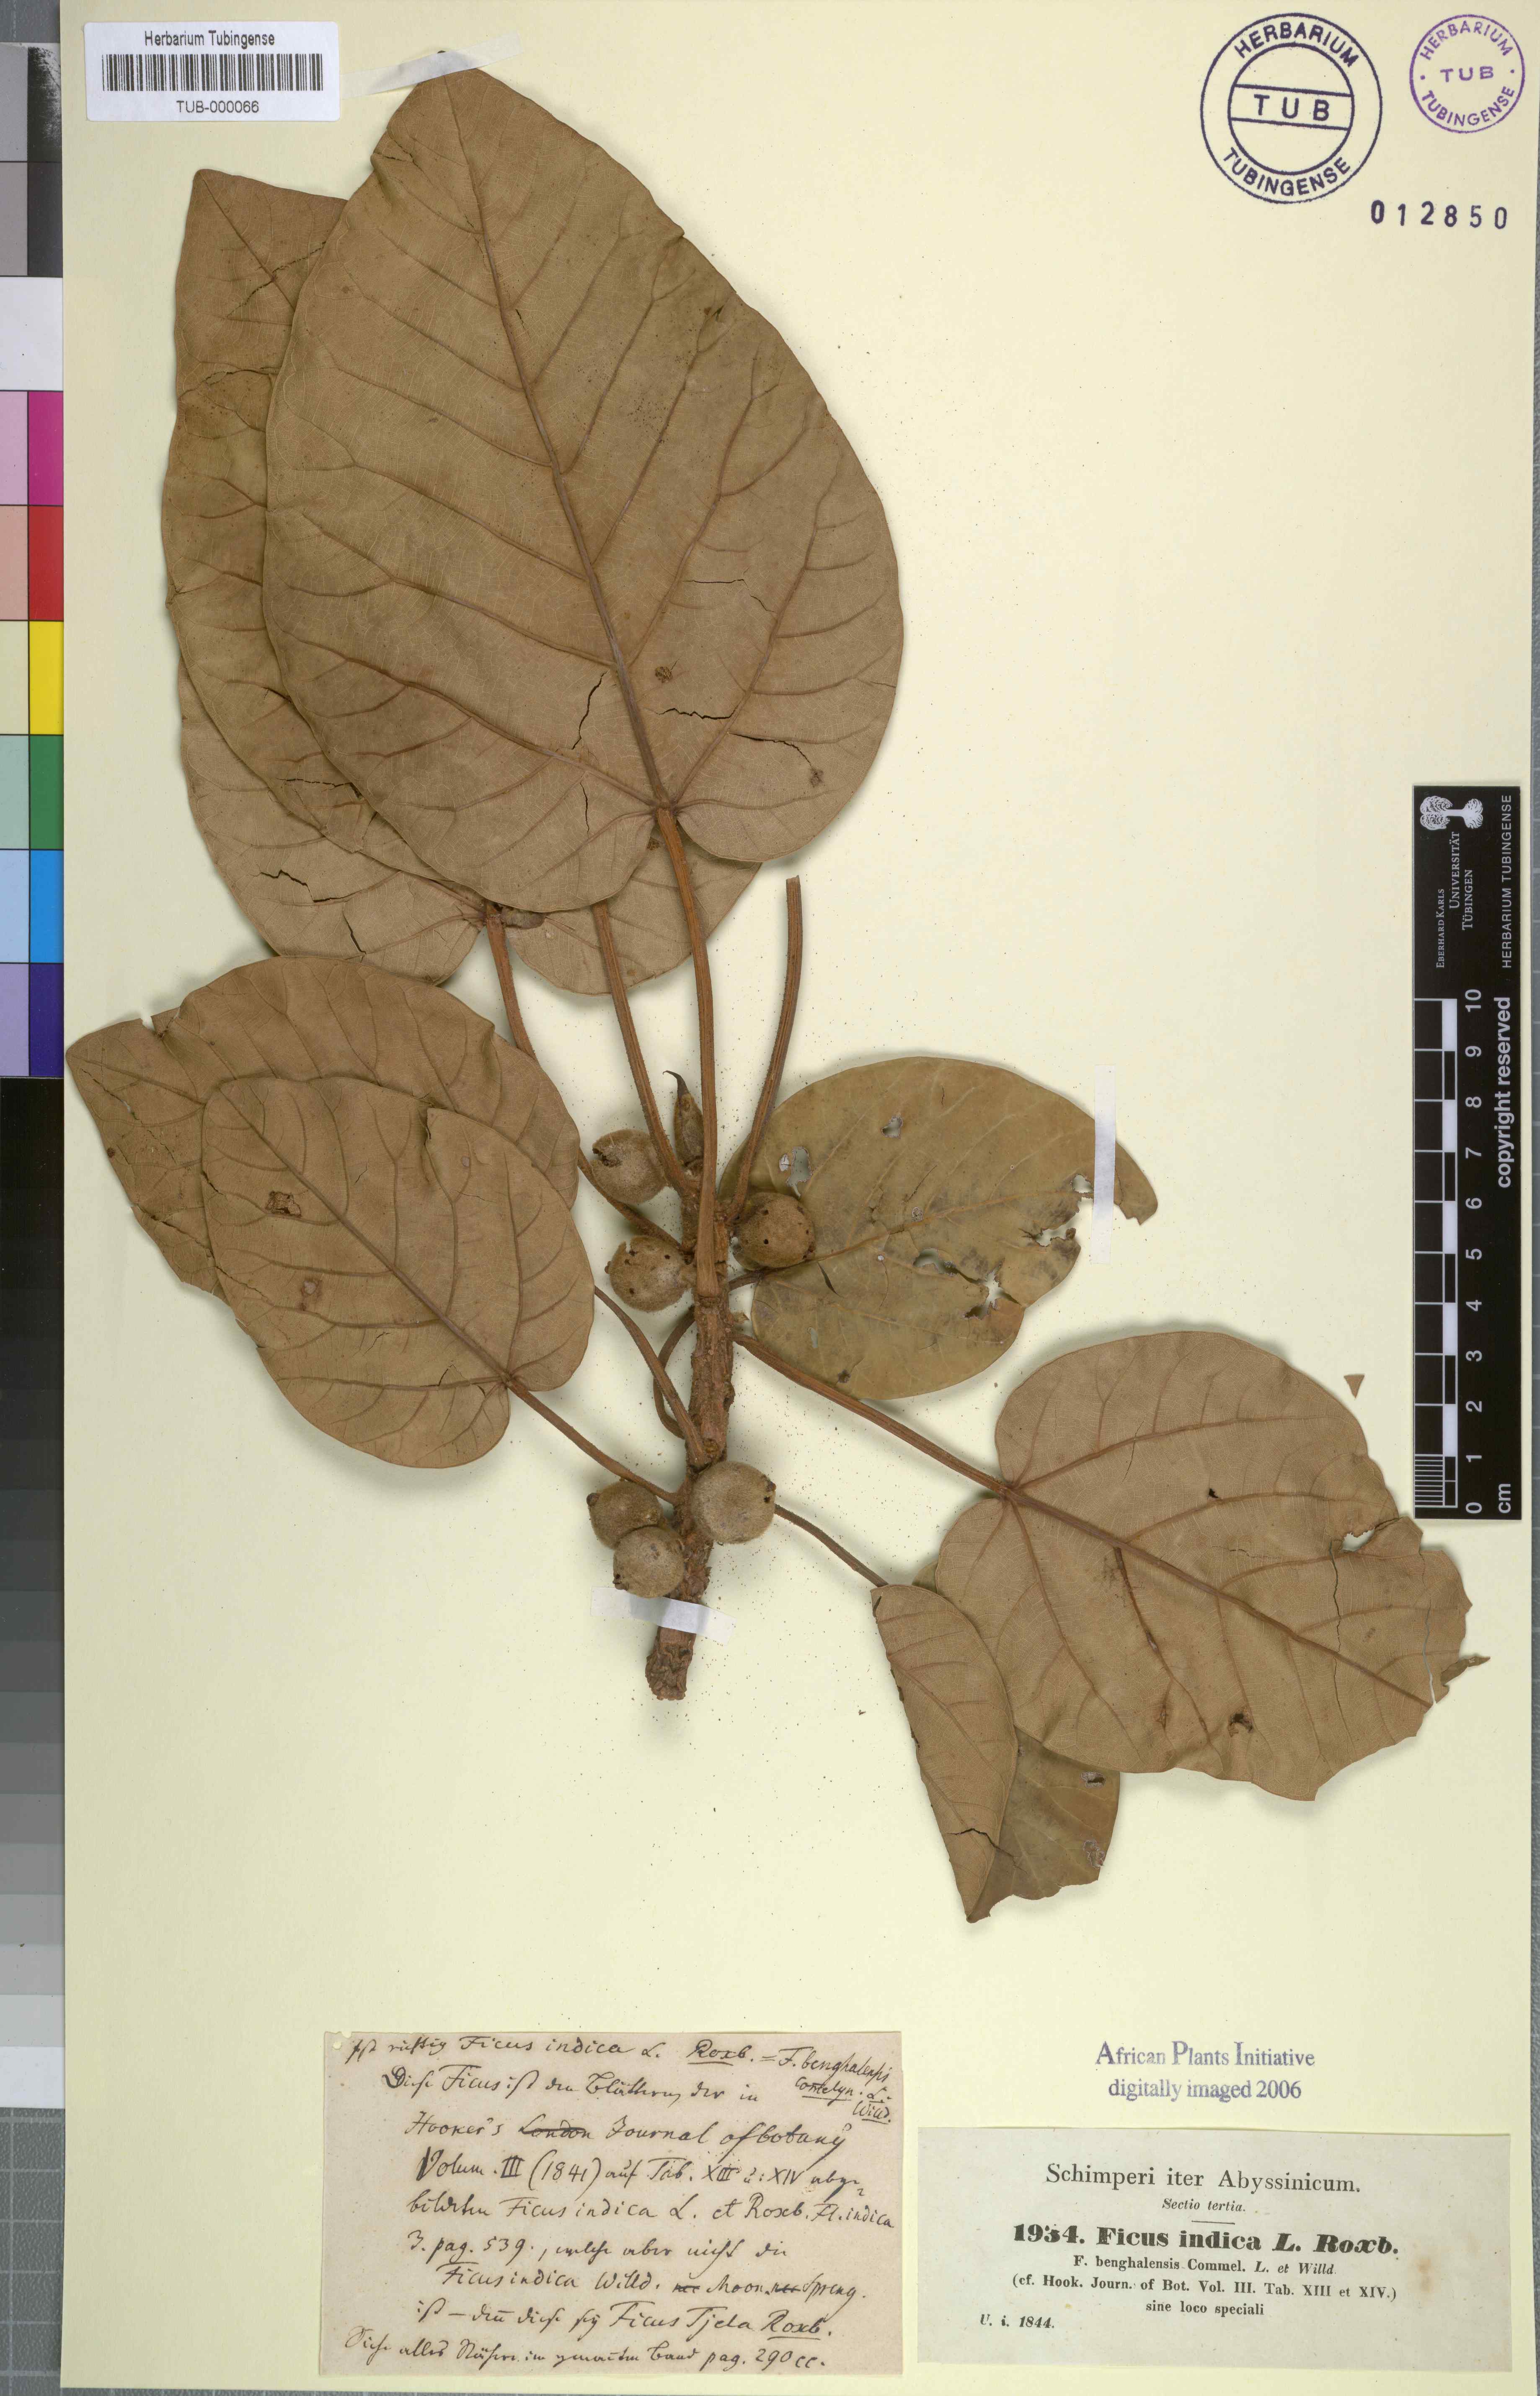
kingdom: Plantae
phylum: Tracheophyta
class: Magnoliopsida
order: Rosales
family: Moraceae
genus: Ficus
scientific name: Ficus
